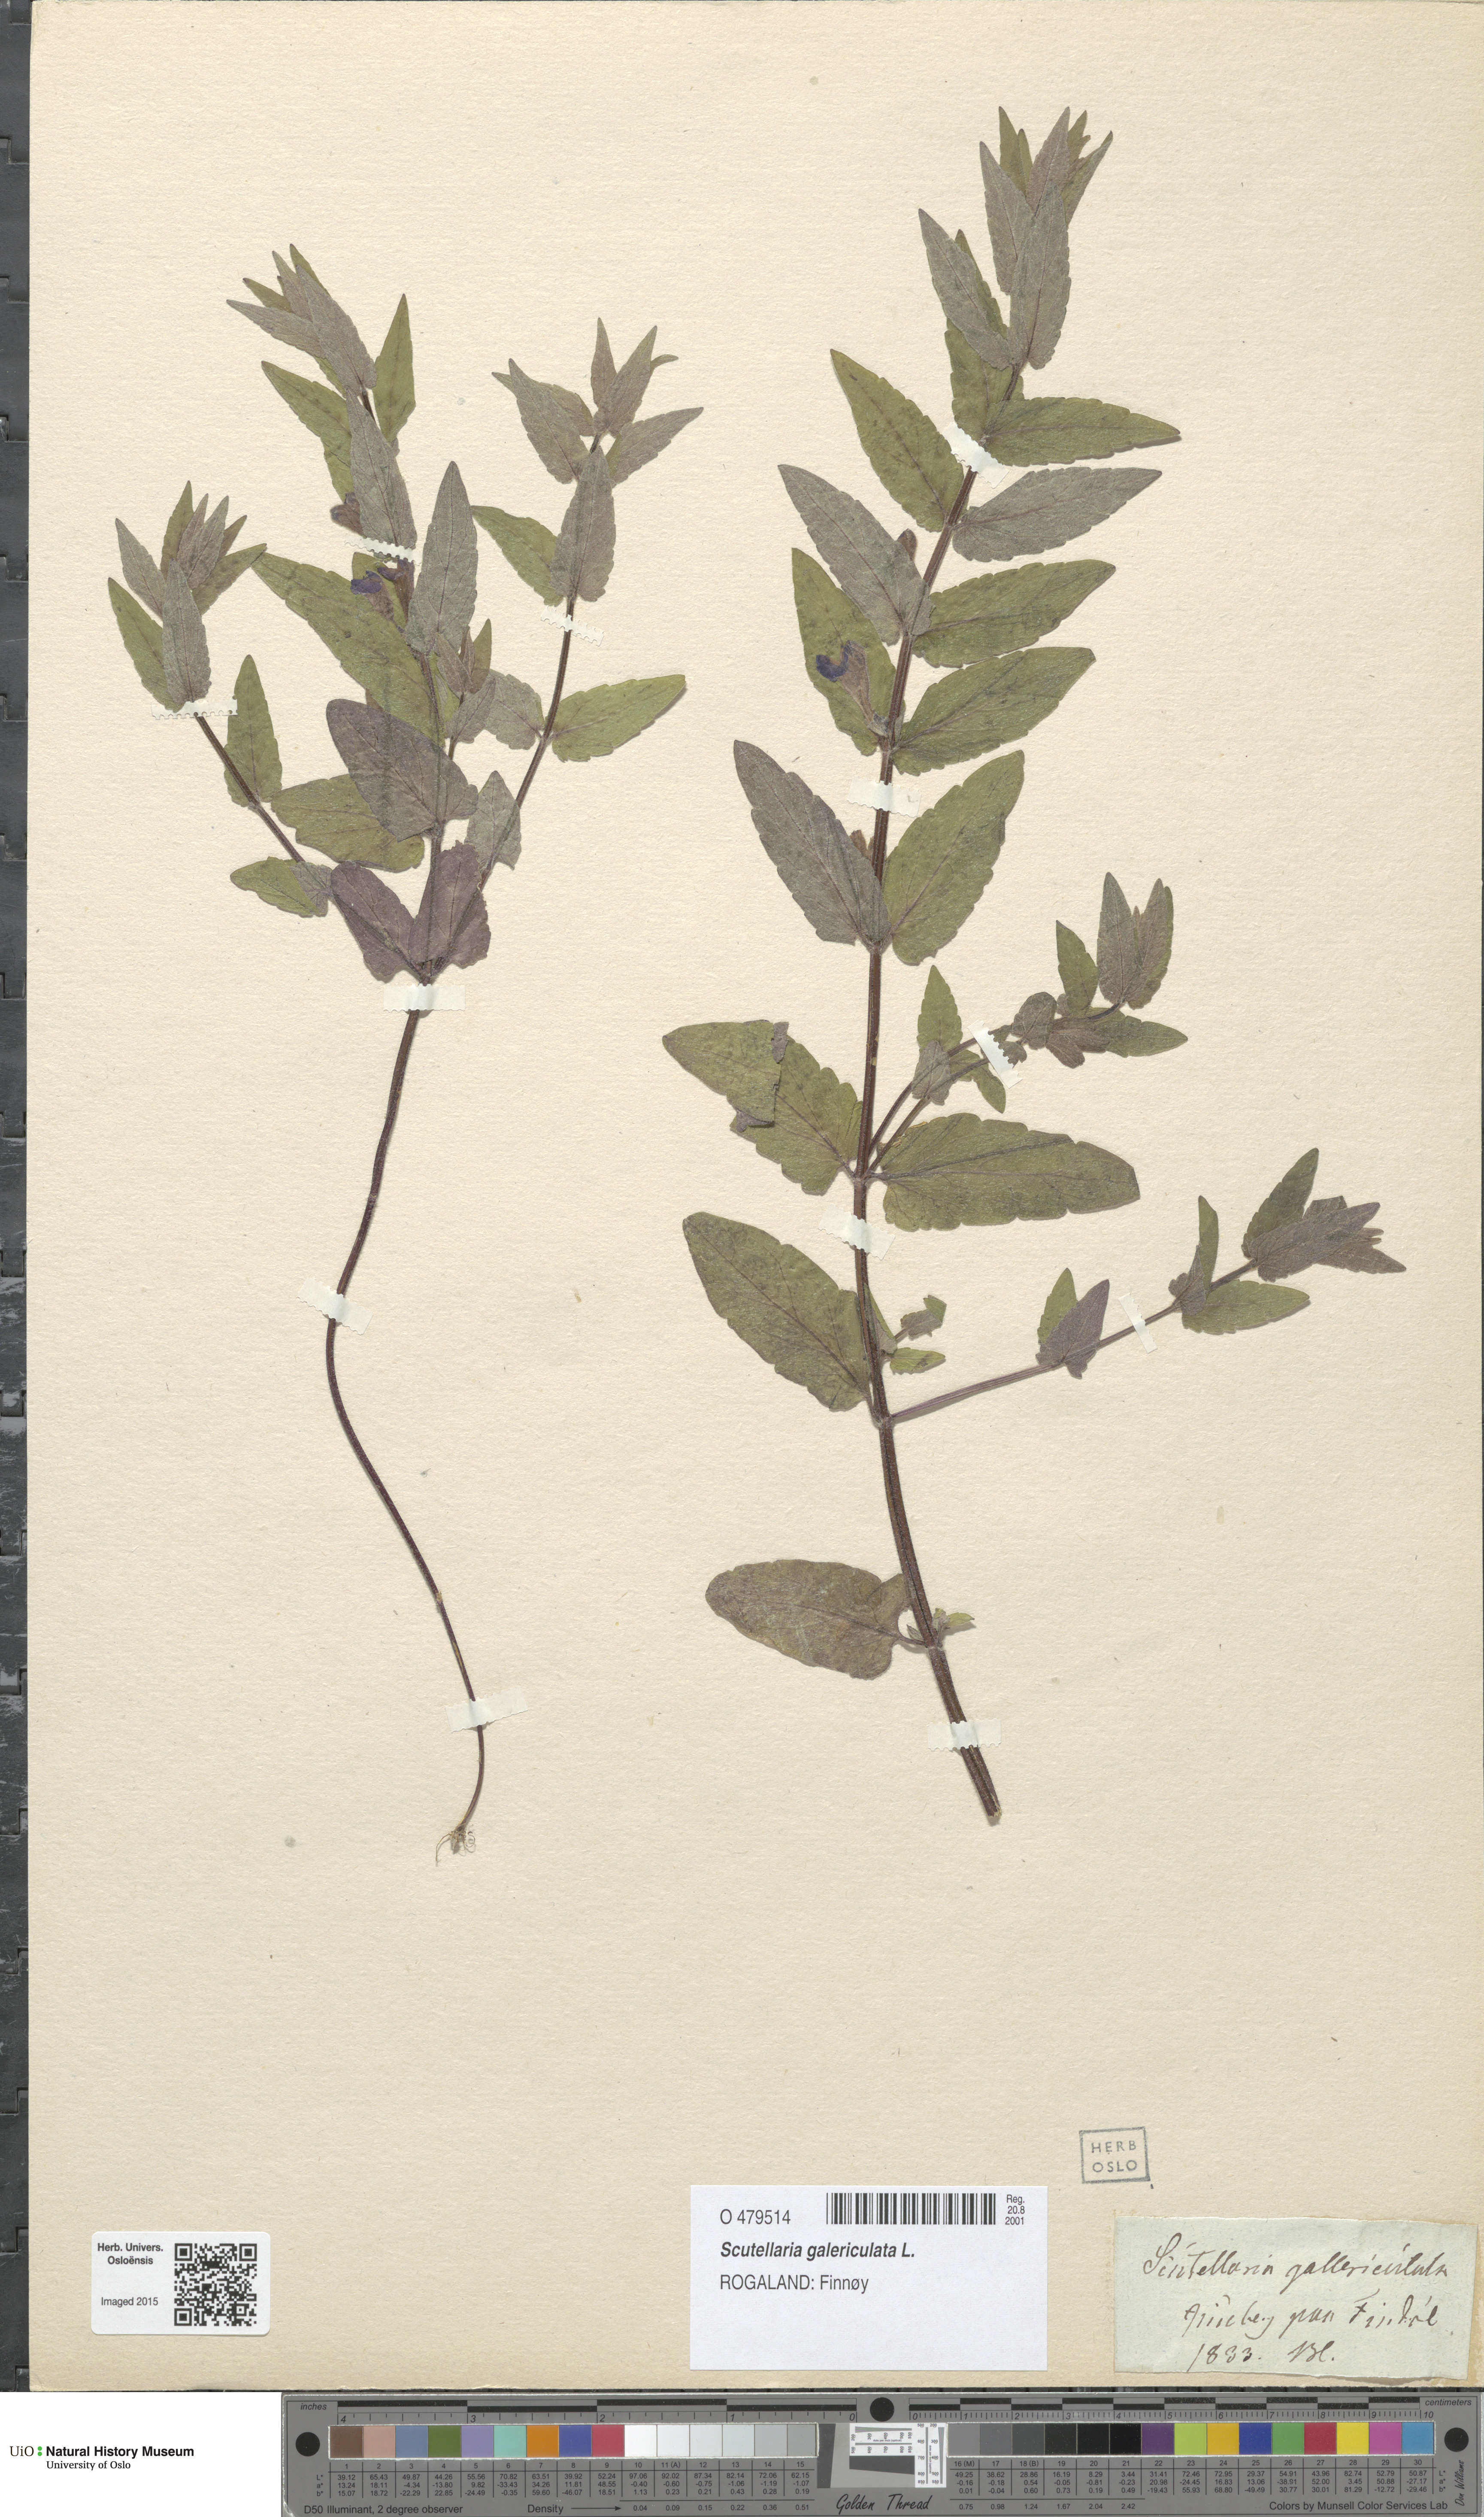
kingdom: Plantae
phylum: Tracheophyta
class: Magnoliopsida
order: Lamiales
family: Lamiaceae
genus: Scutellaria
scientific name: Scutellaria galericulata
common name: Skullcap
